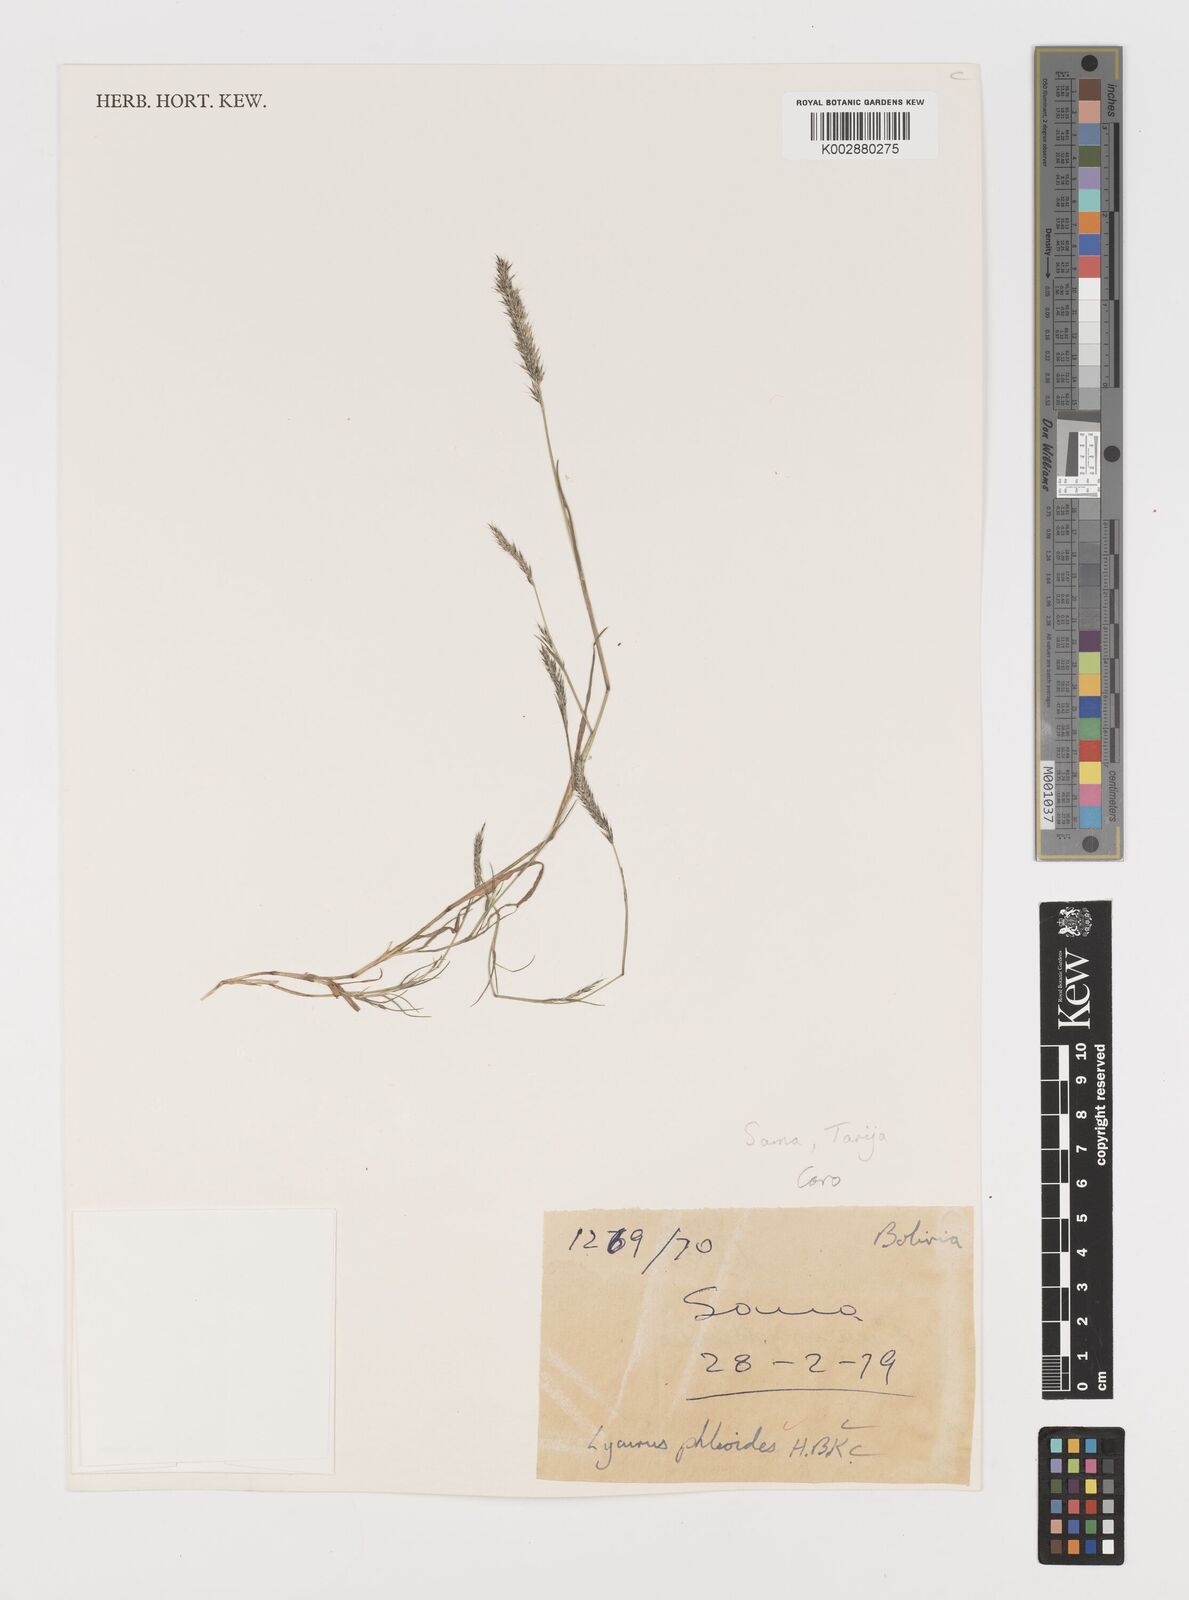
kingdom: Plantae
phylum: Tracheophyta
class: Liliopsida
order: Poales
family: Poaceae
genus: Muhlenbergia
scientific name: Muhlenbergia phalaroides
